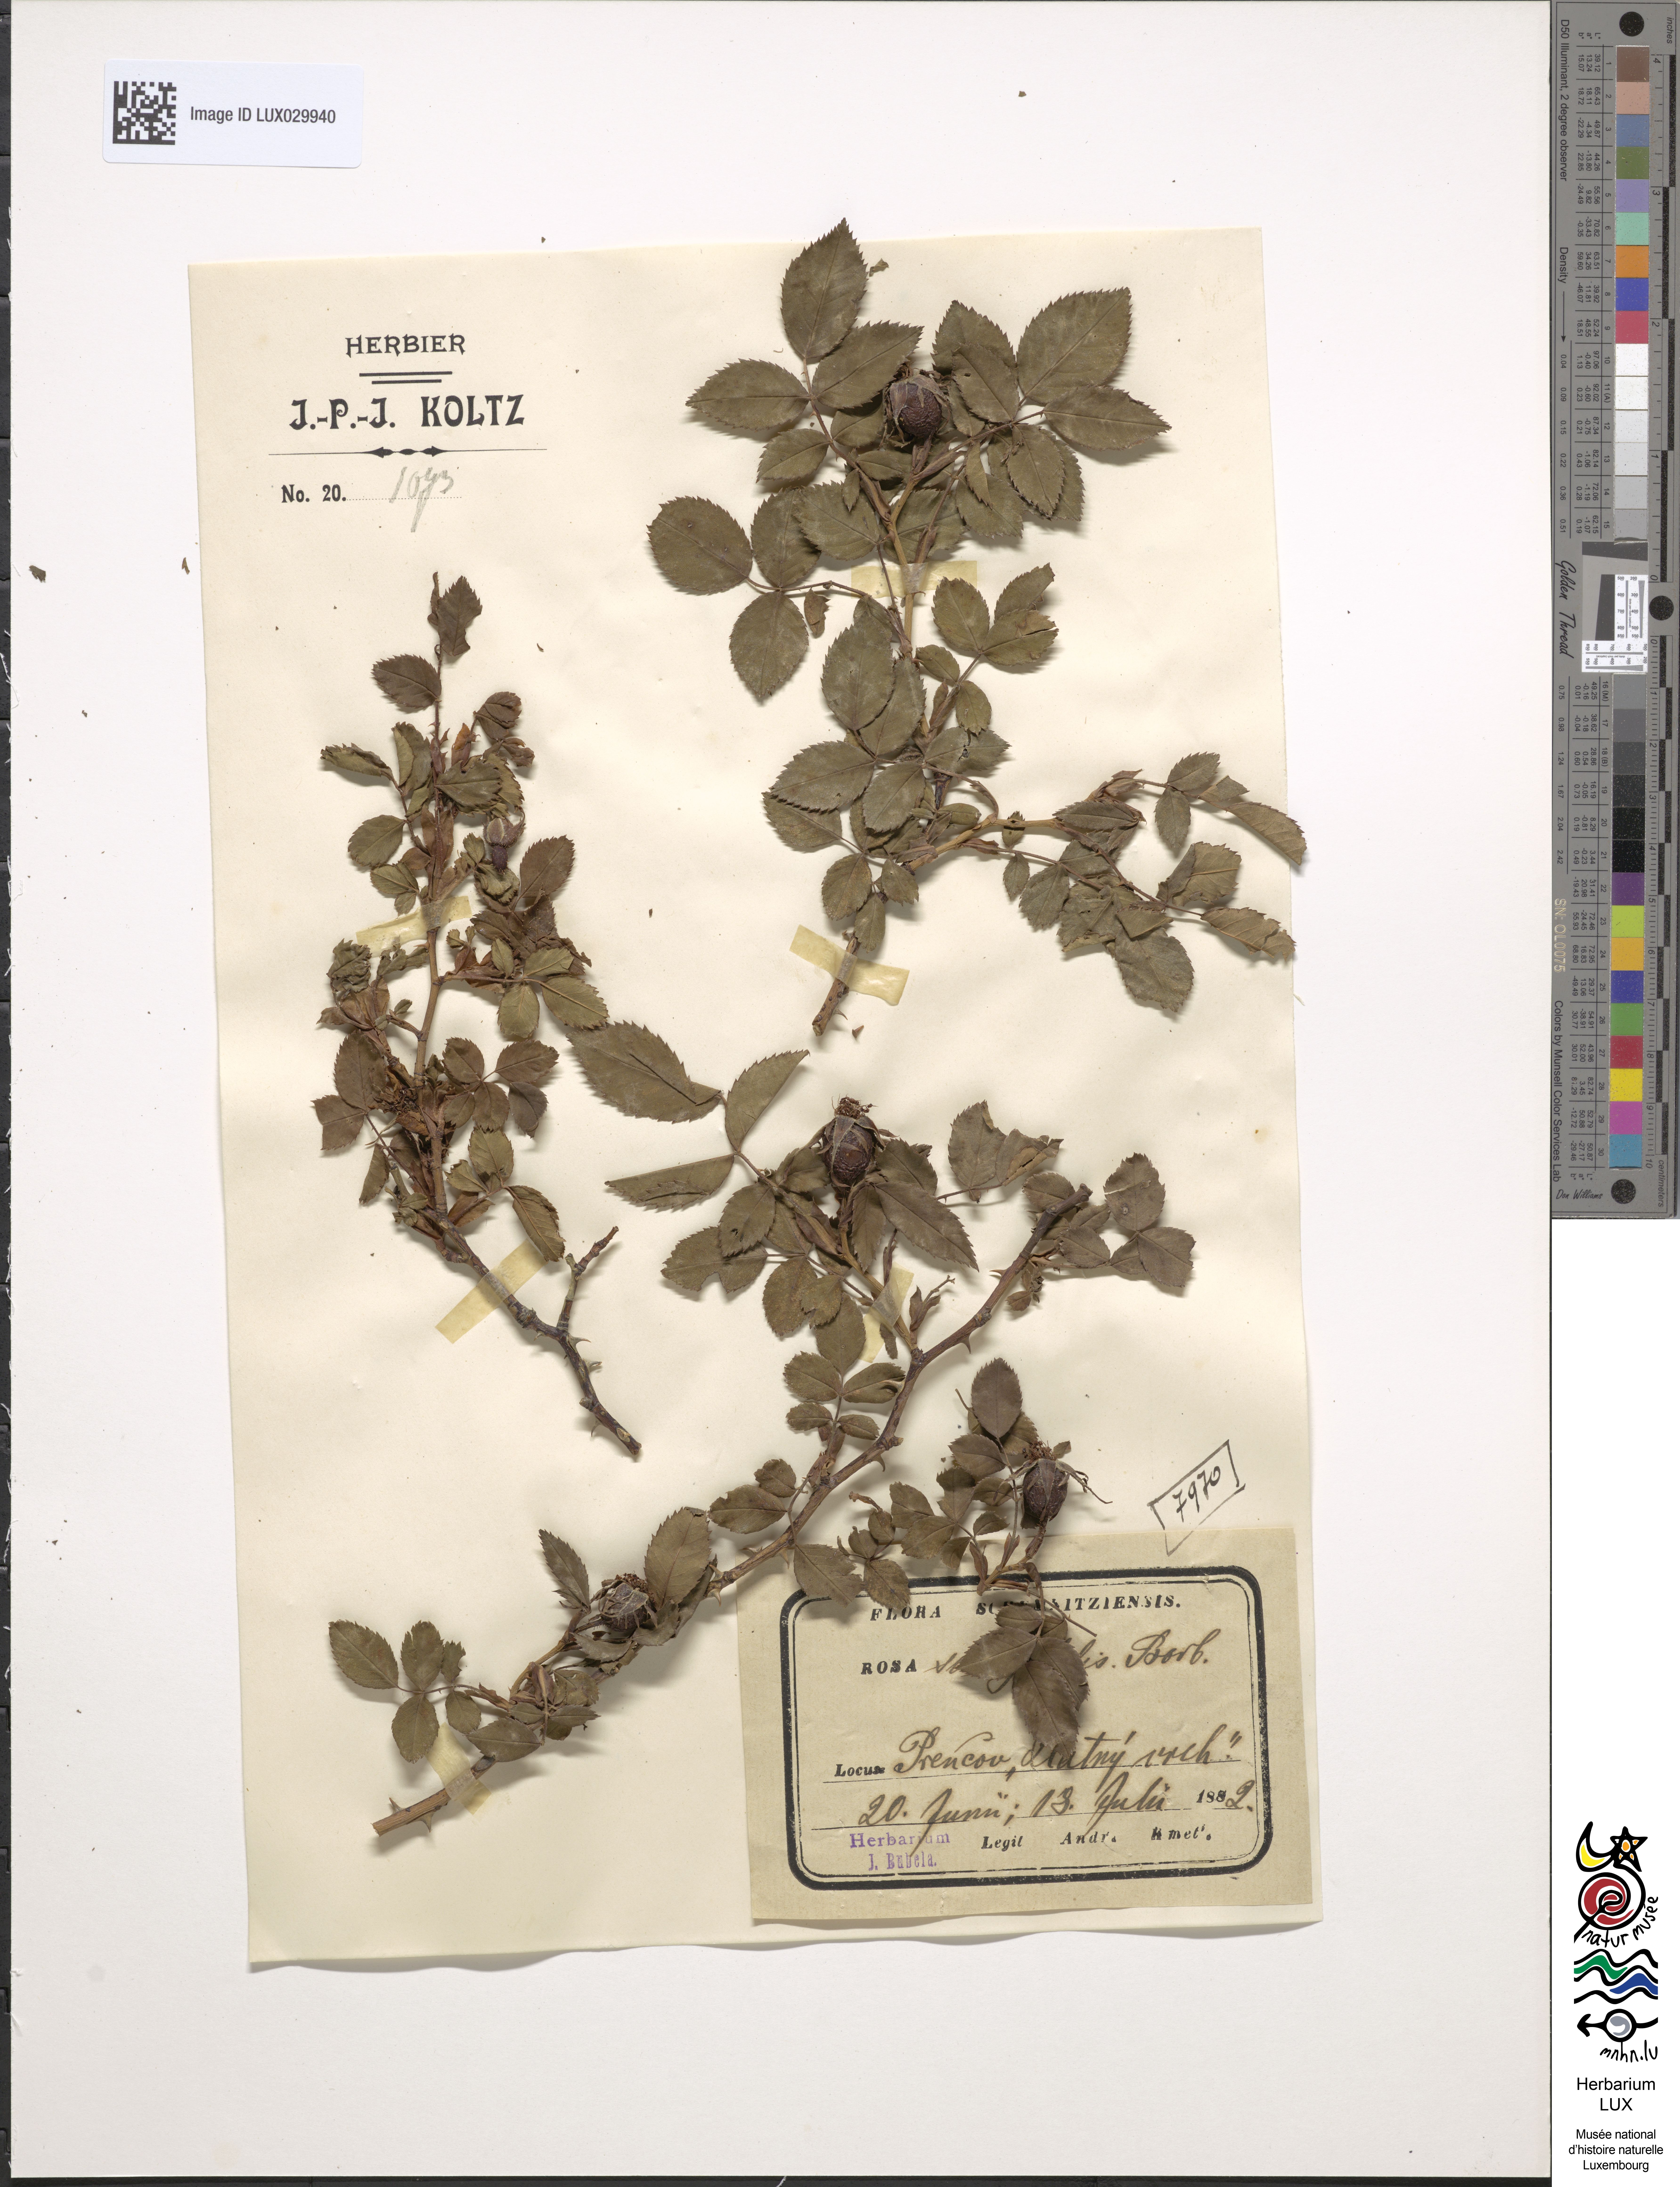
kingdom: Plantae
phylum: Tracheophyta
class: Magnoliopsida
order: Rosales
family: Rosaceae
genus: Rosa
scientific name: Rosa
